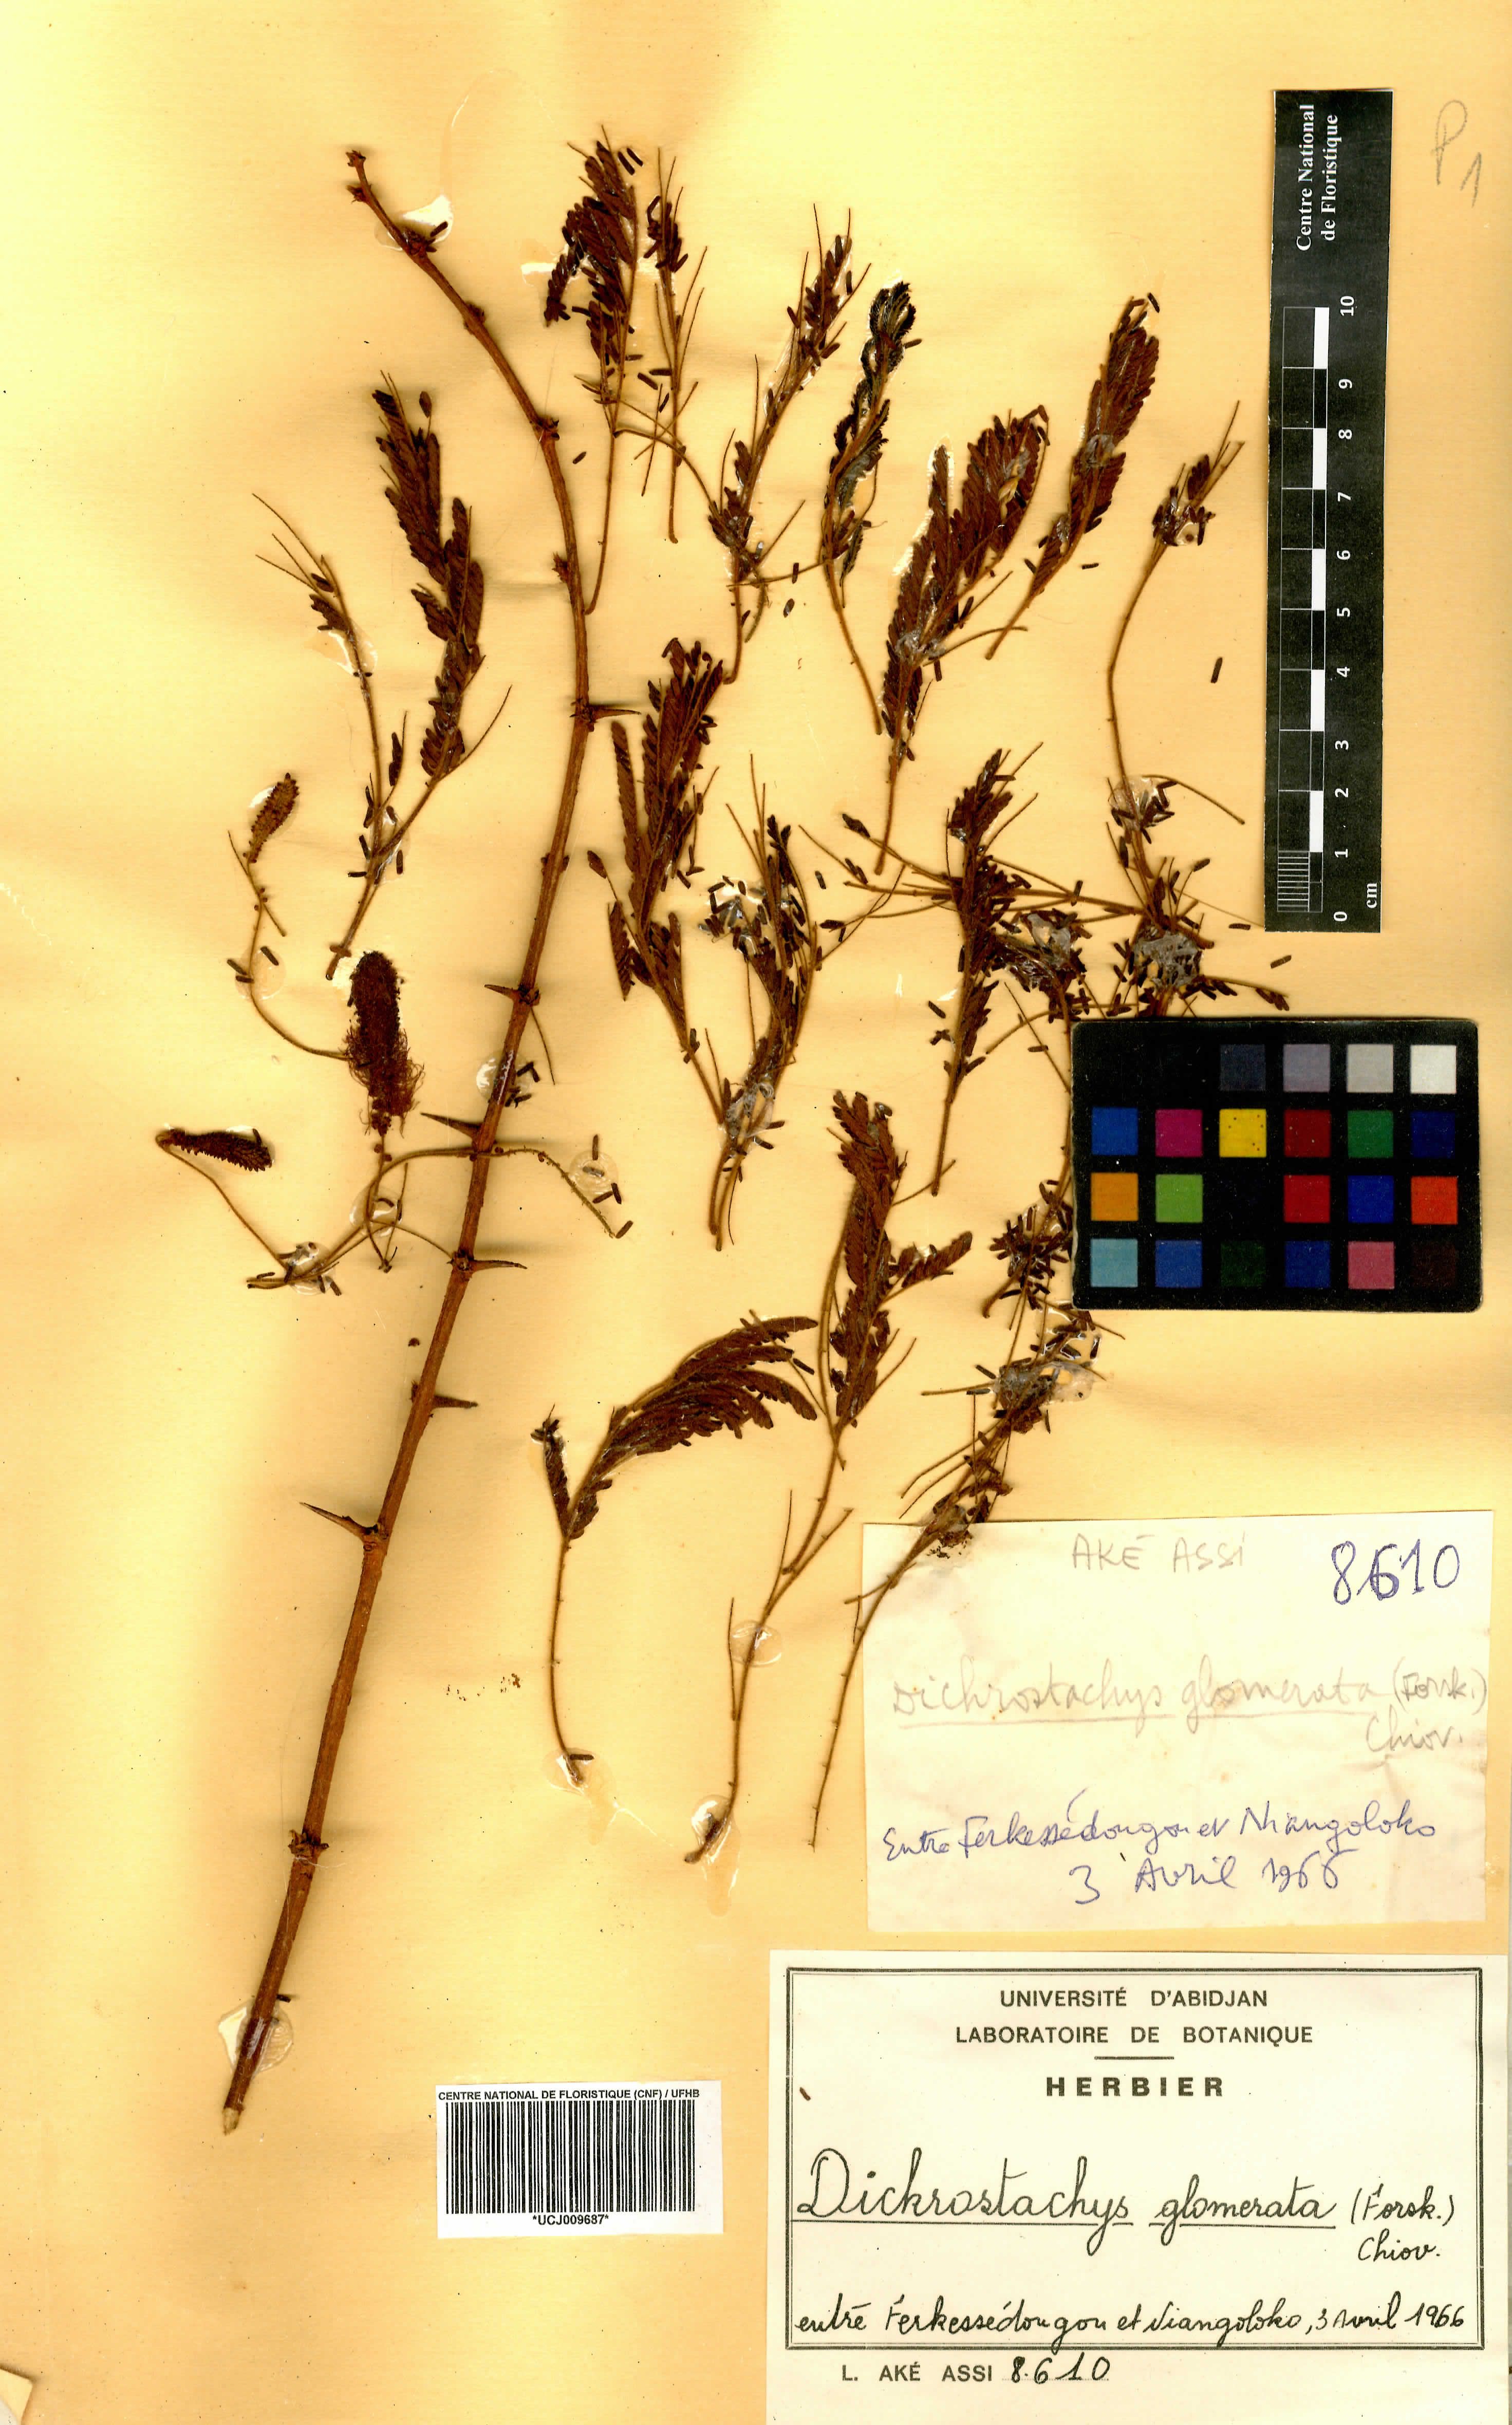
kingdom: Plantae
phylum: Tracheophyta
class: Magnoliopsida
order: Fabales
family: Fabaceae
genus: Dichrostachys
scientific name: Dichrostachys cinerea
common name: Sicklebush
